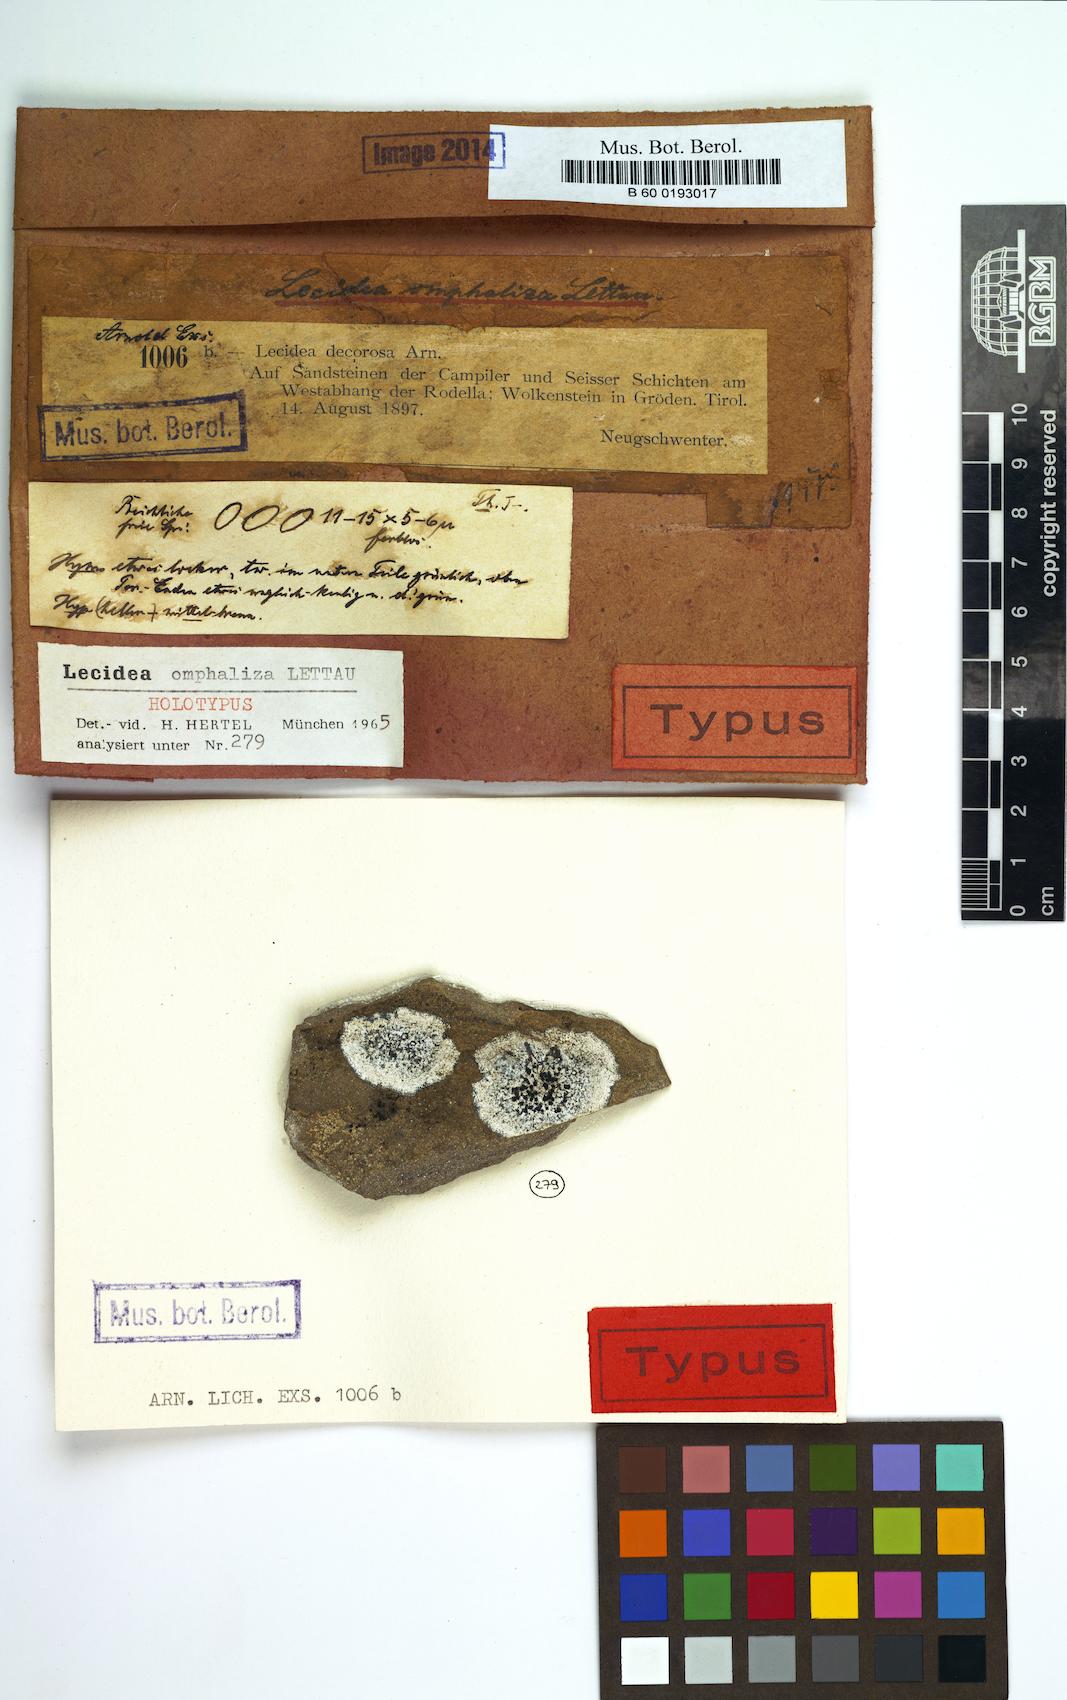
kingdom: Fungi
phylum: Ascomycota
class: Lecanoromycetes
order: Lecideales
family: Lecideaceae
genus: Lecidea
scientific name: Lecidea umbonata
